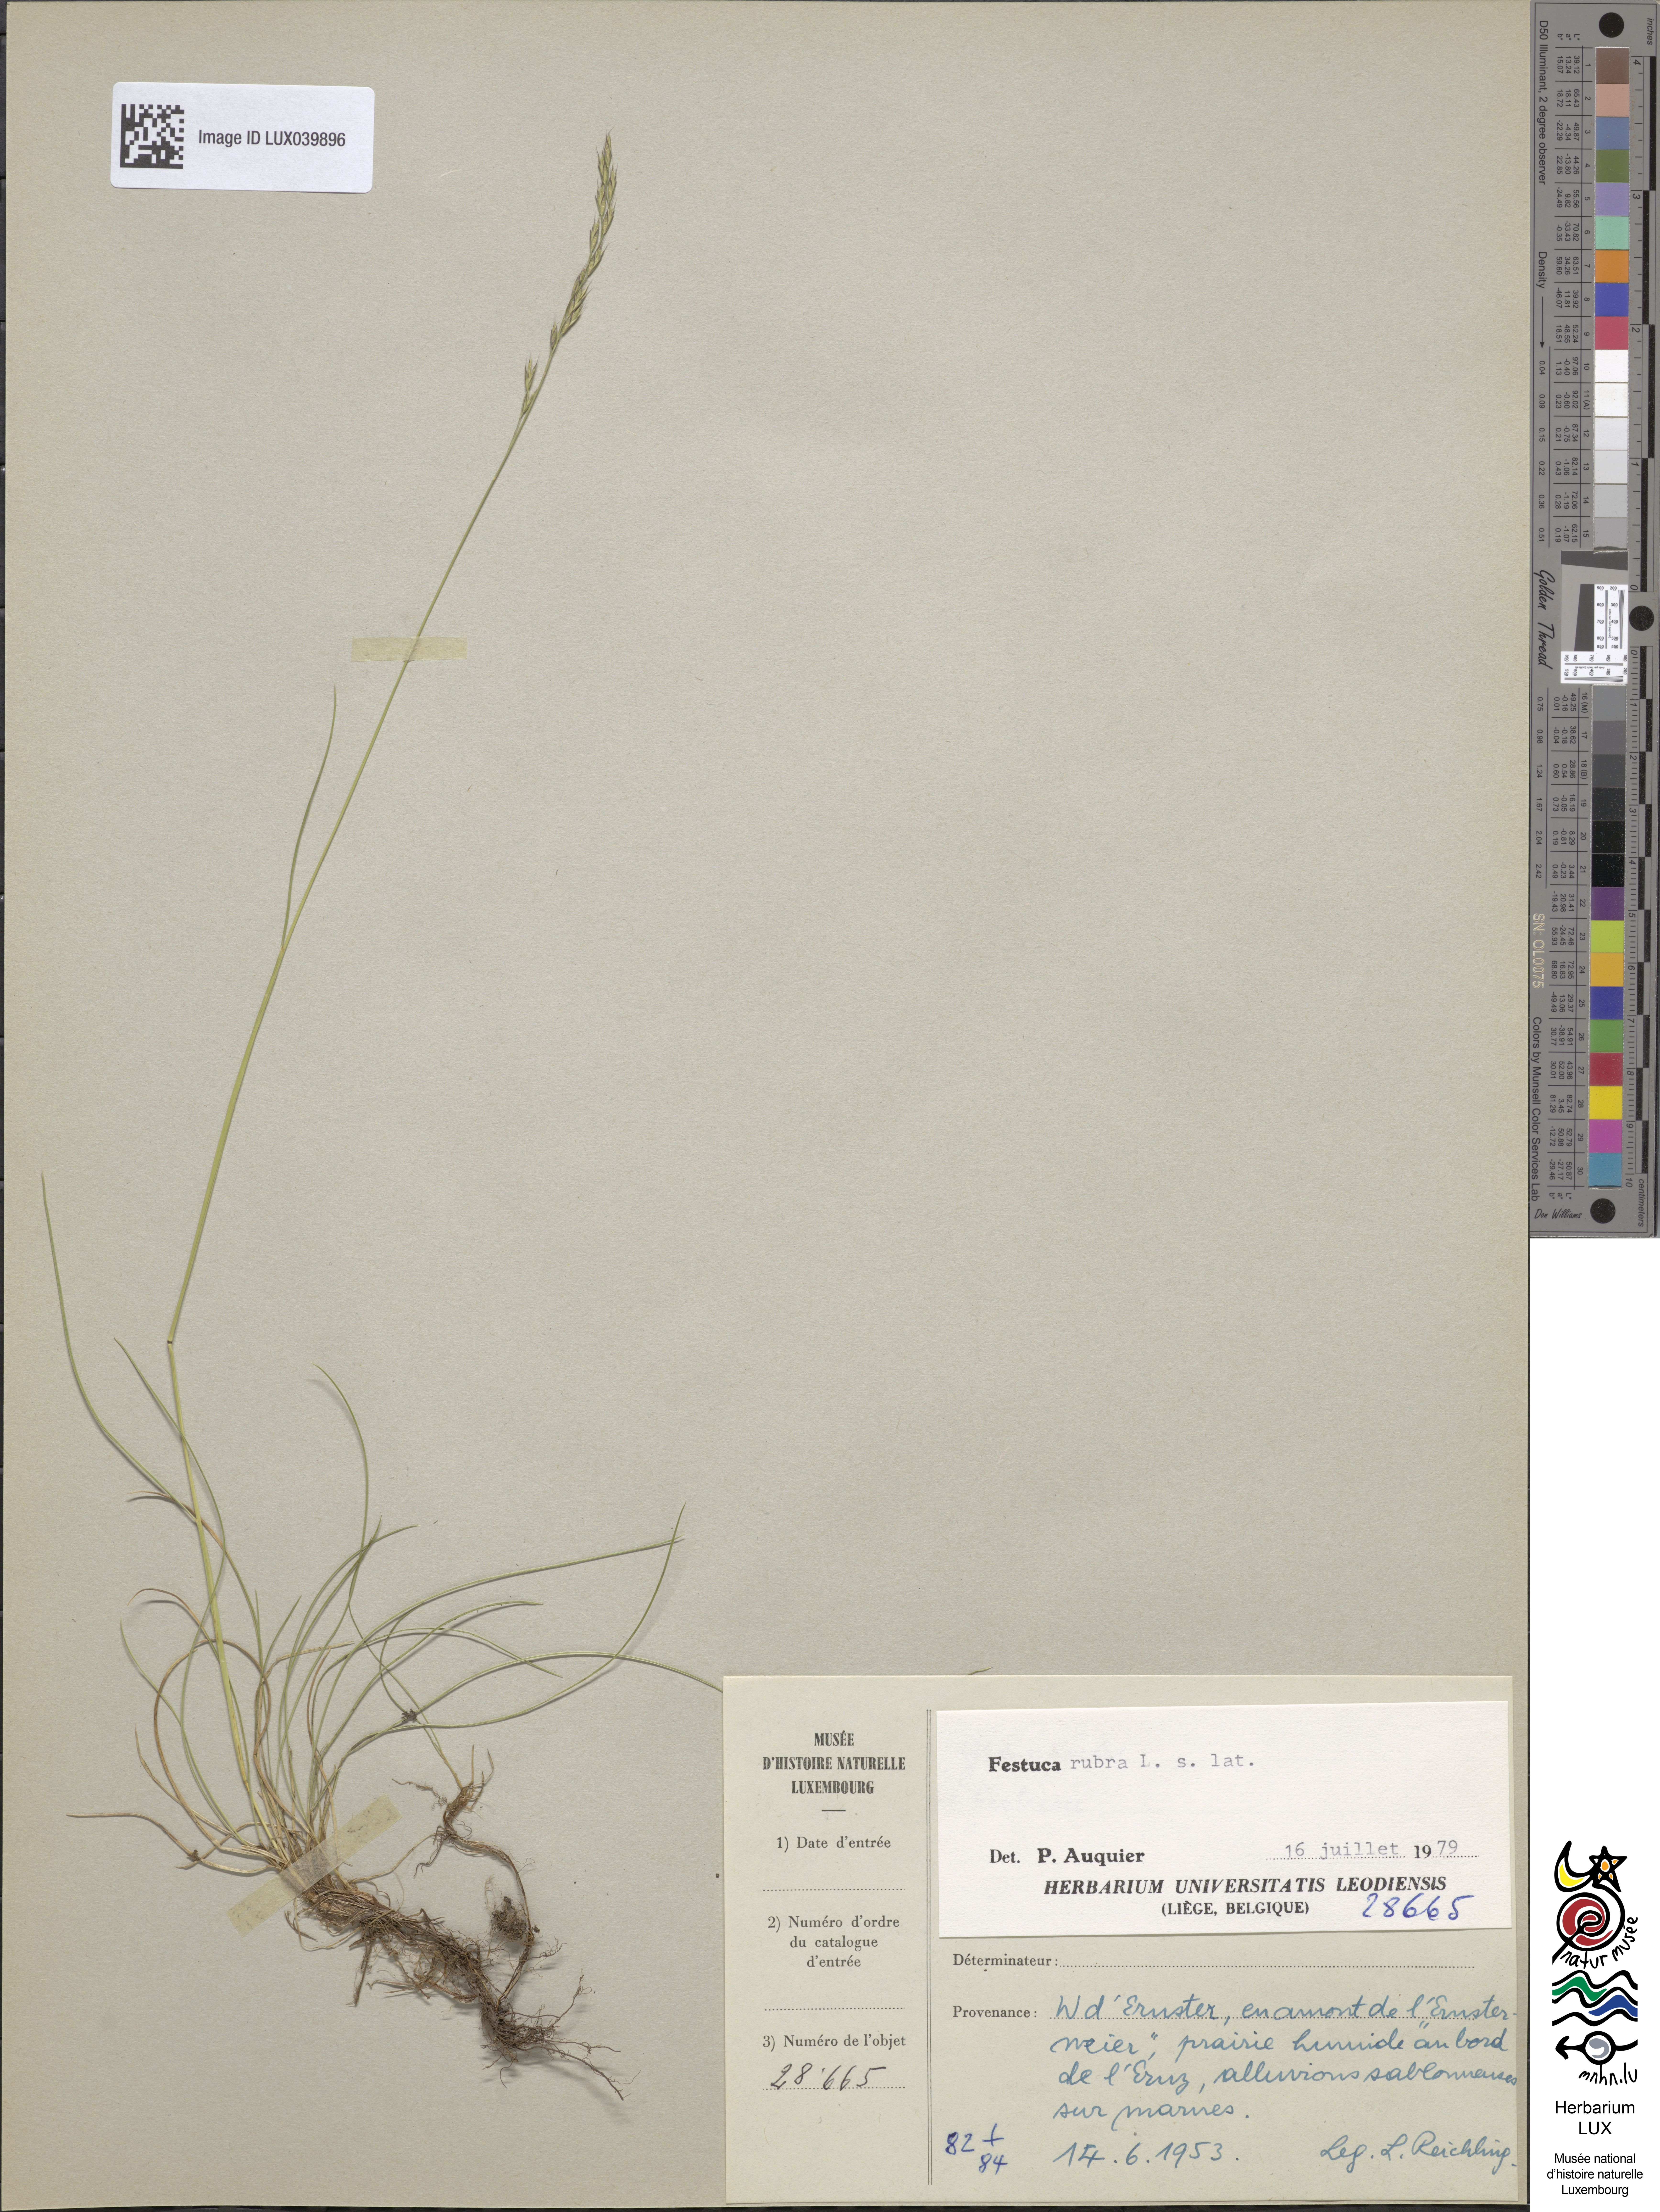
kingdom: Plantae
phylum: Tracheophyta
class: Liliopsida
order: Poales
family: Poaceae
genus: Festuca
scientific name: Festuca
